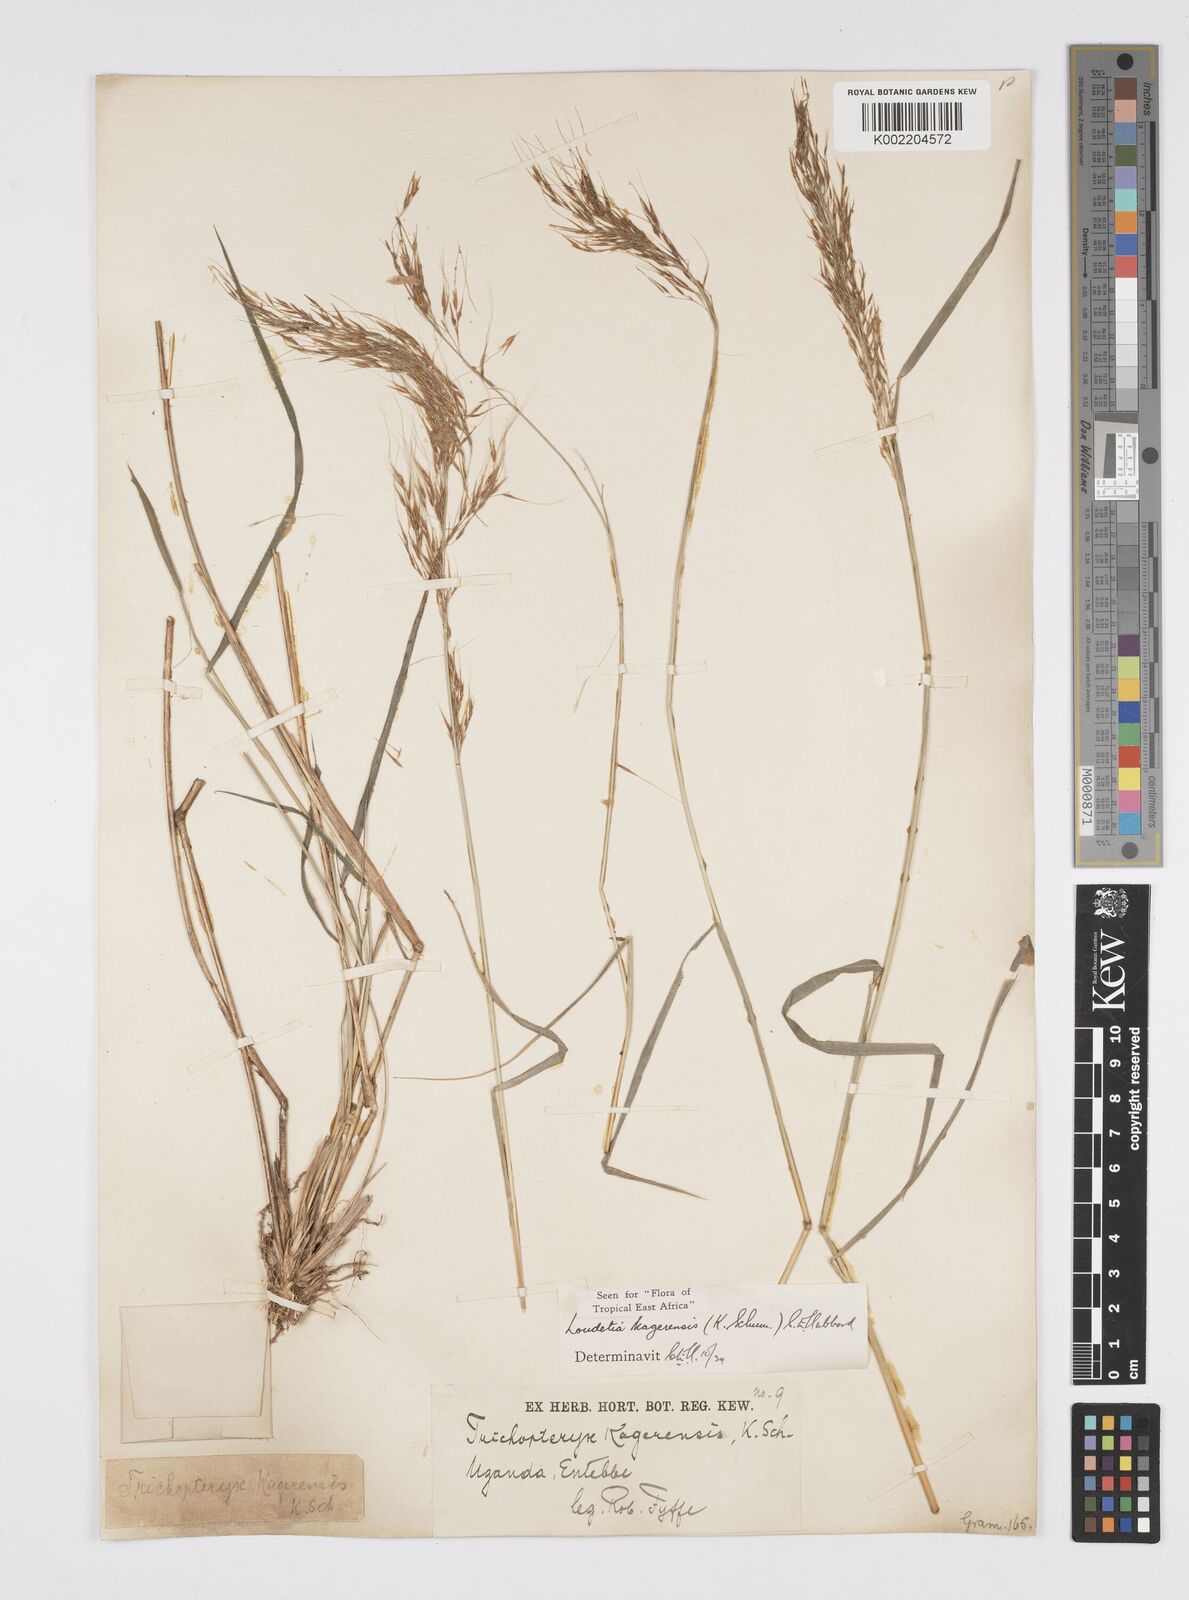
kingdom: Plantae
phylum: Tracheophyta
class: Liliopsida
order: Poales
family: Poaceae
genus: Loudetia
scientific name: Loudetia kagerensis
